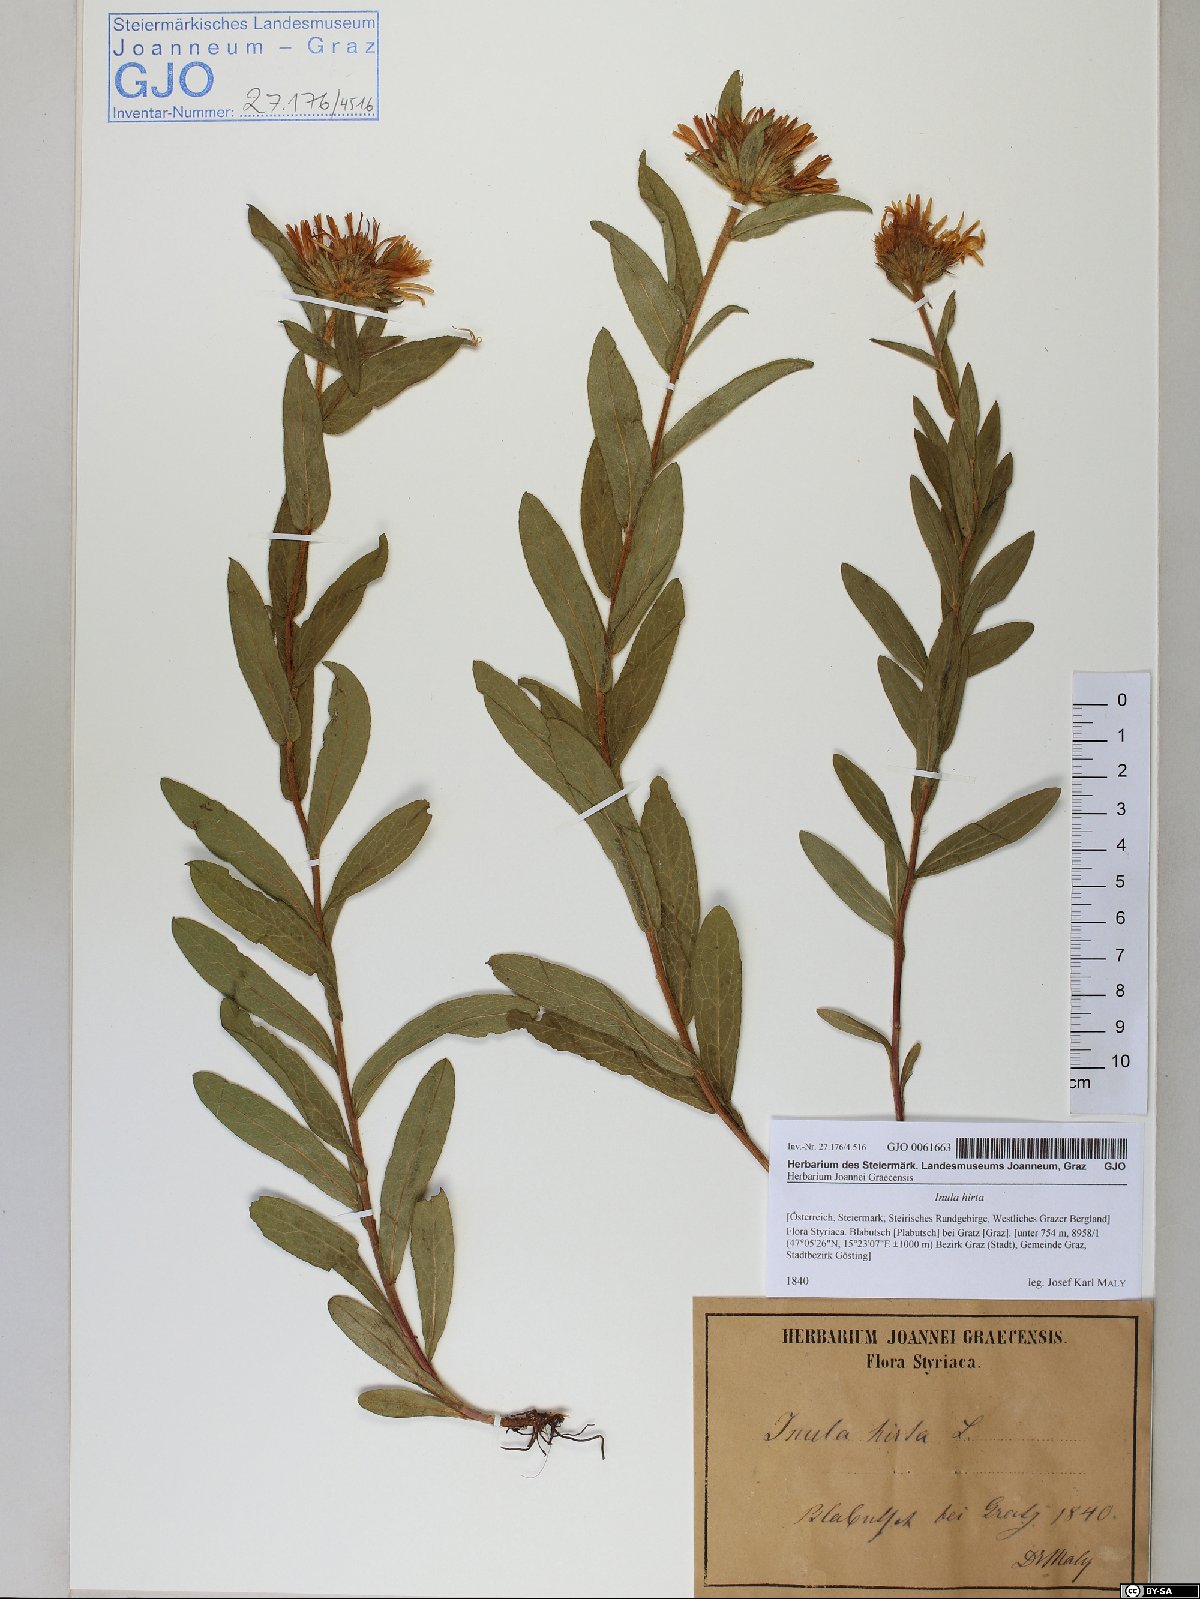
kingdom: Plantae
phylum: Tracheophyta
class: Magnoliopsida
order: Asterales
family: Asteraceae
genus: Pentanema
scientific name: Pentanema hirtum
